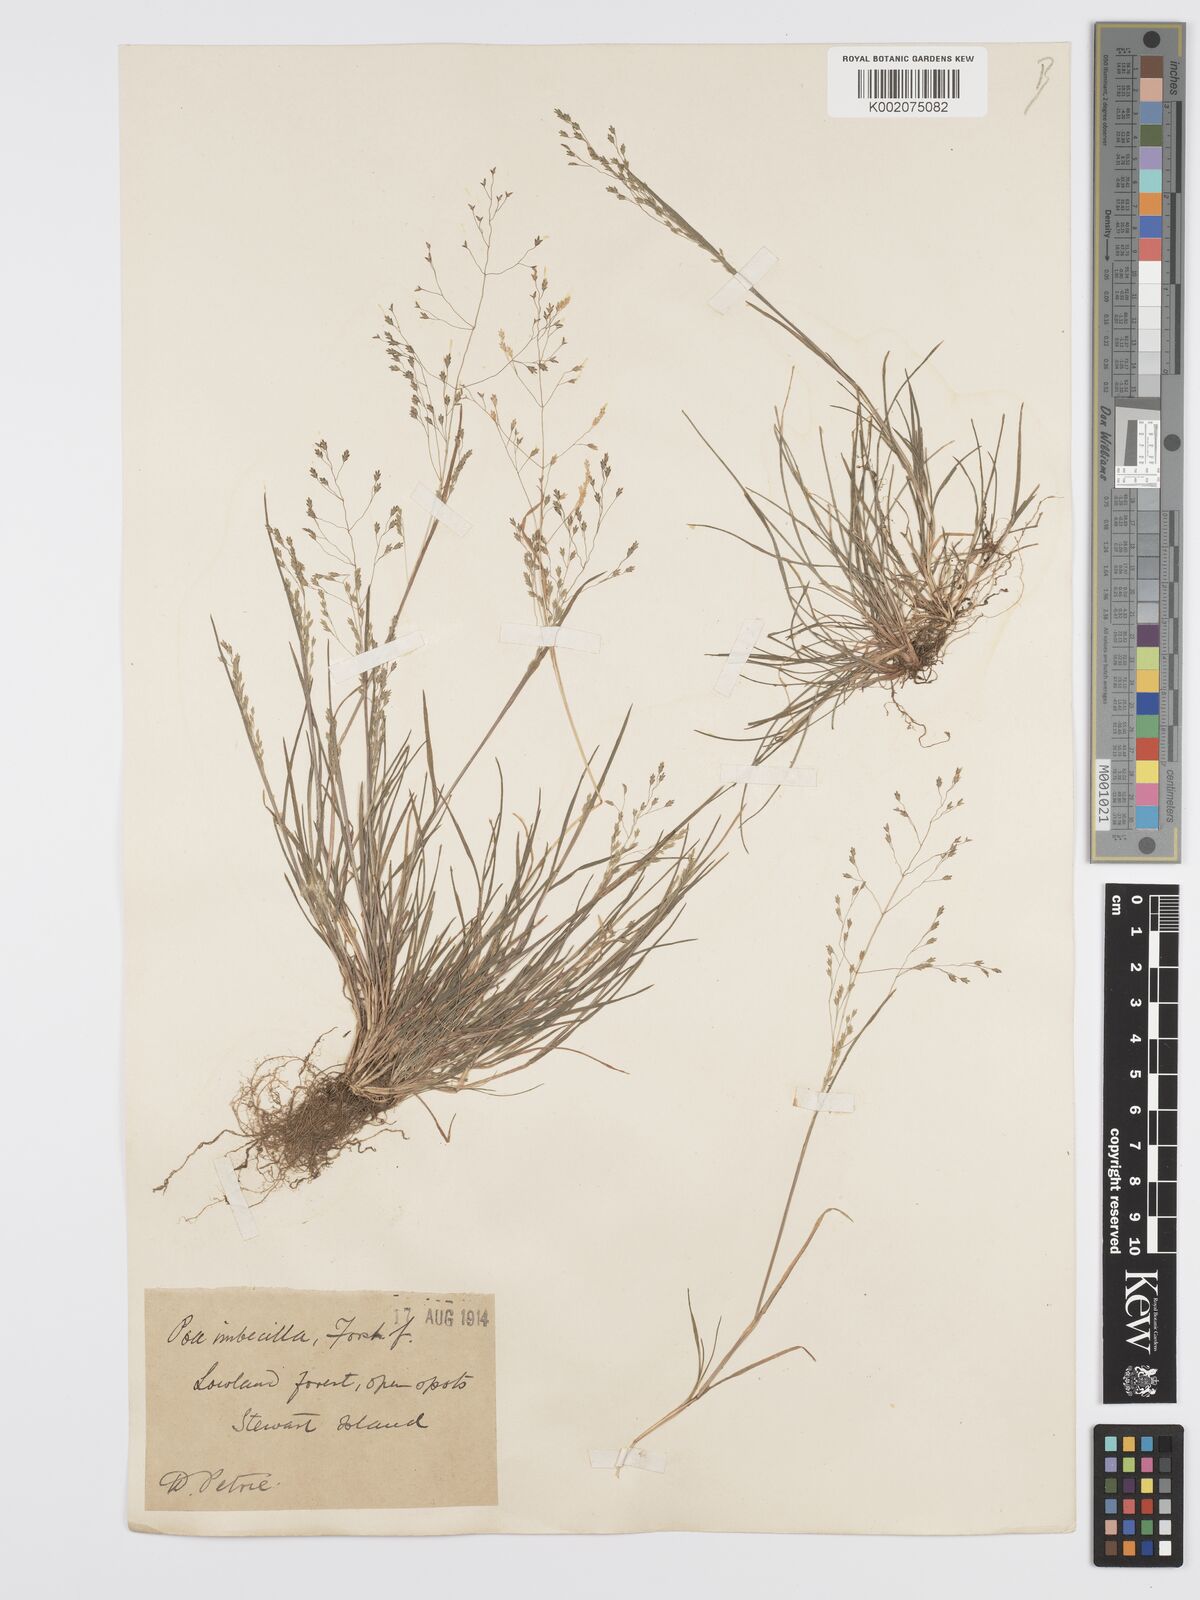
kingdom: Plantae
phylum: Tracheophyta
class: Liliopsida
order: Poales
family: Poaceae
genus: Poa
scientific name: Poa breviglumis
